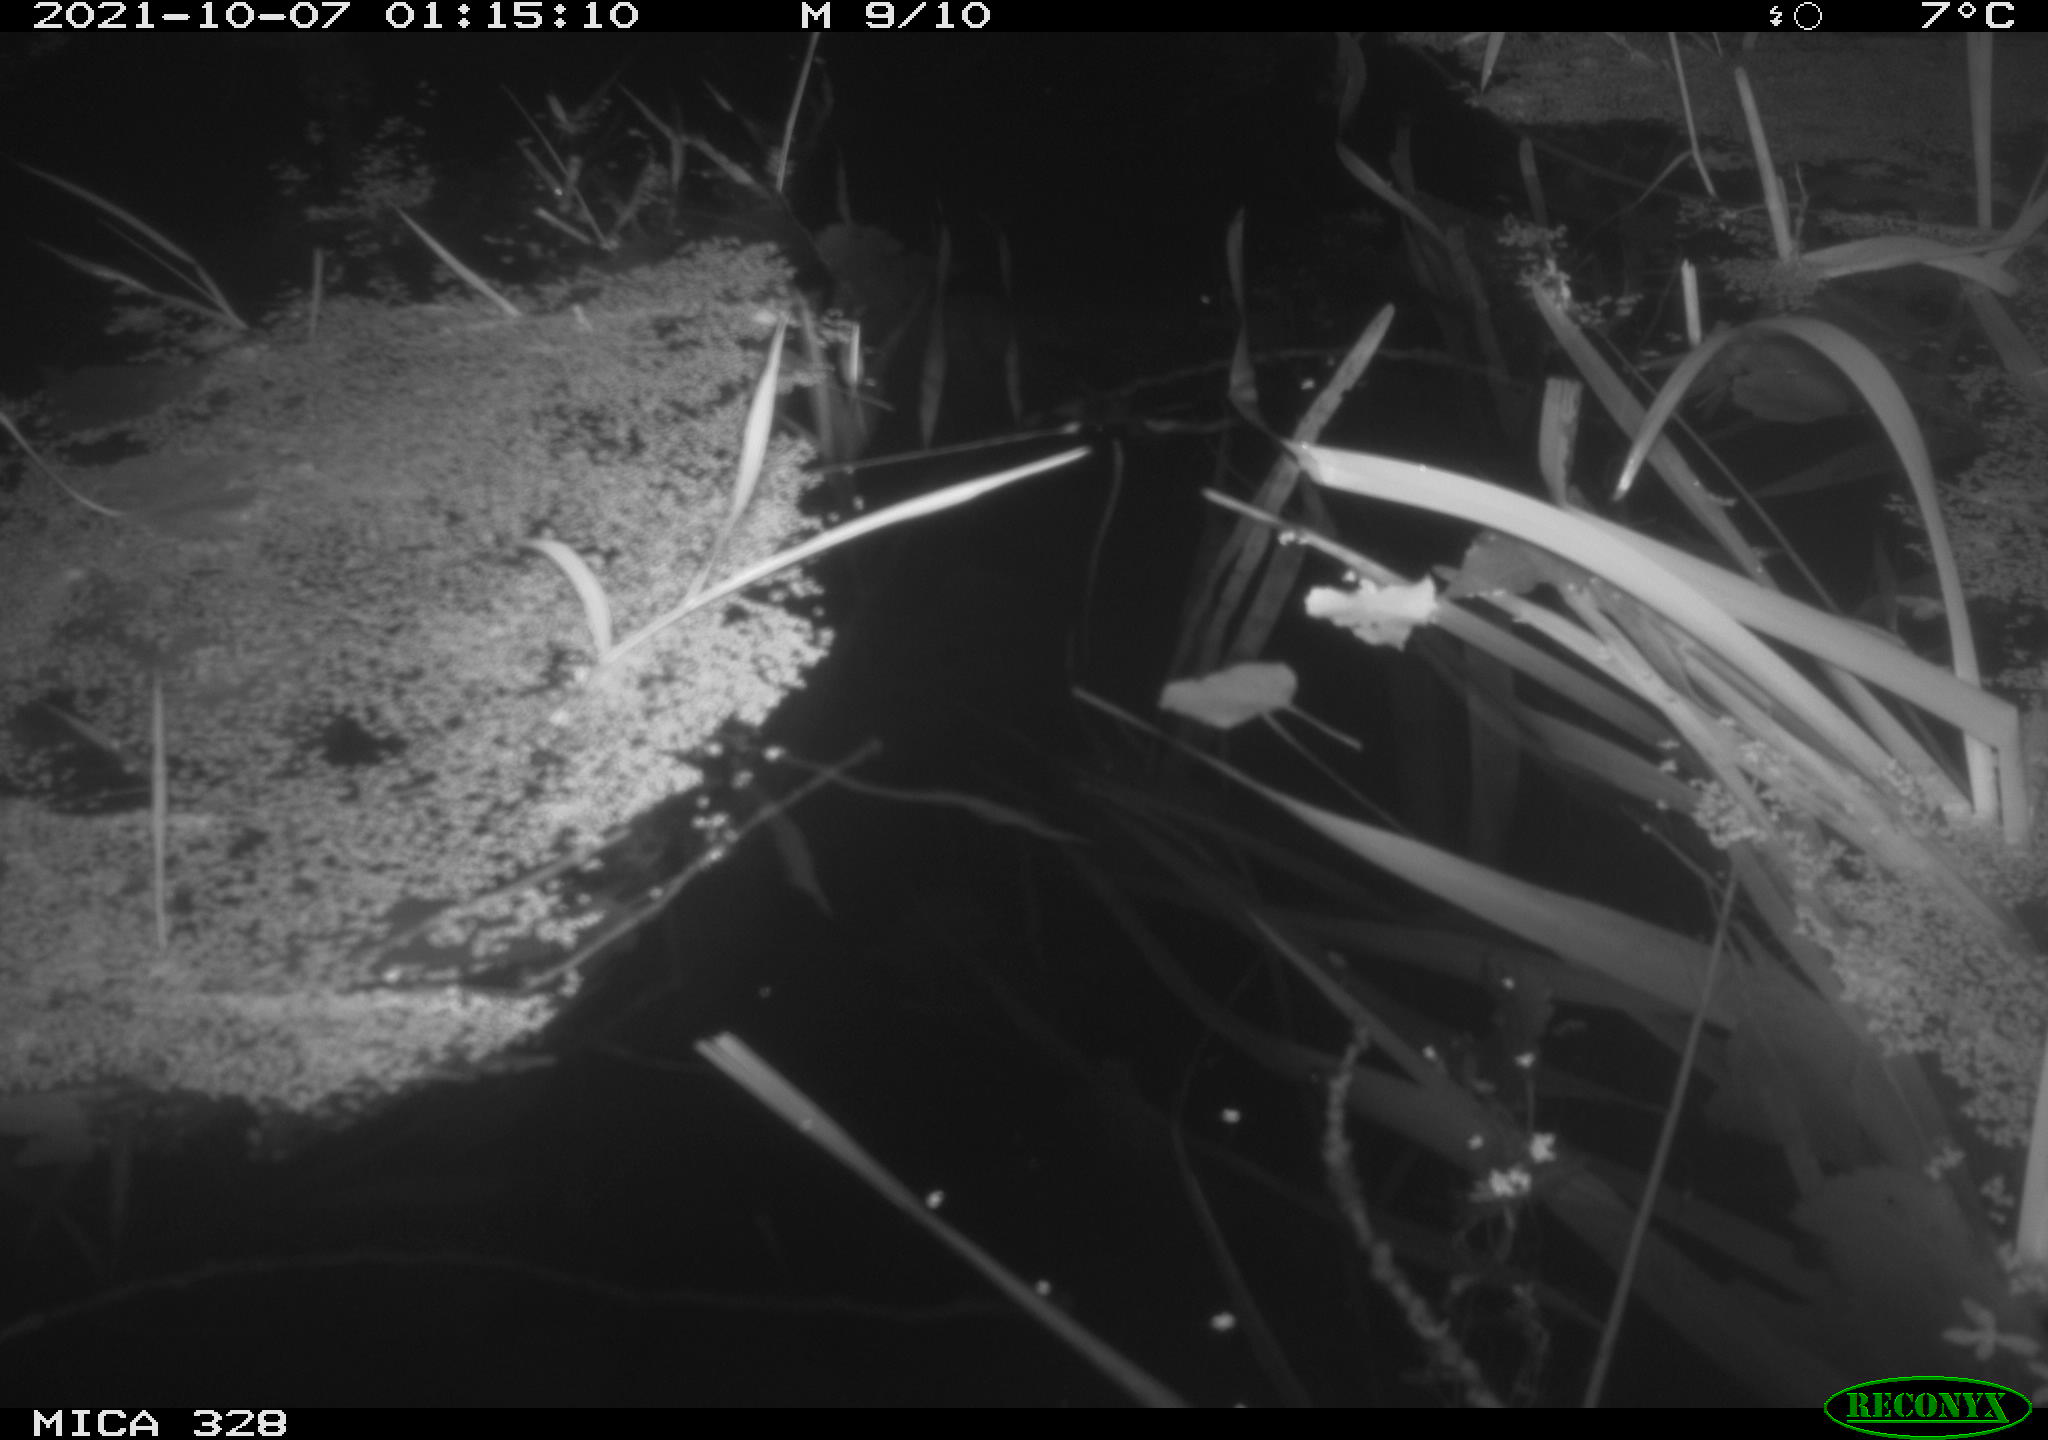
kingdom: Animalia
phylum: Chordata
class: Mammalia
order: Rodentia
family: Cricetidae
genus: Ondatra
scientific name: Ondatra zibethicus
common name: Muskrat
